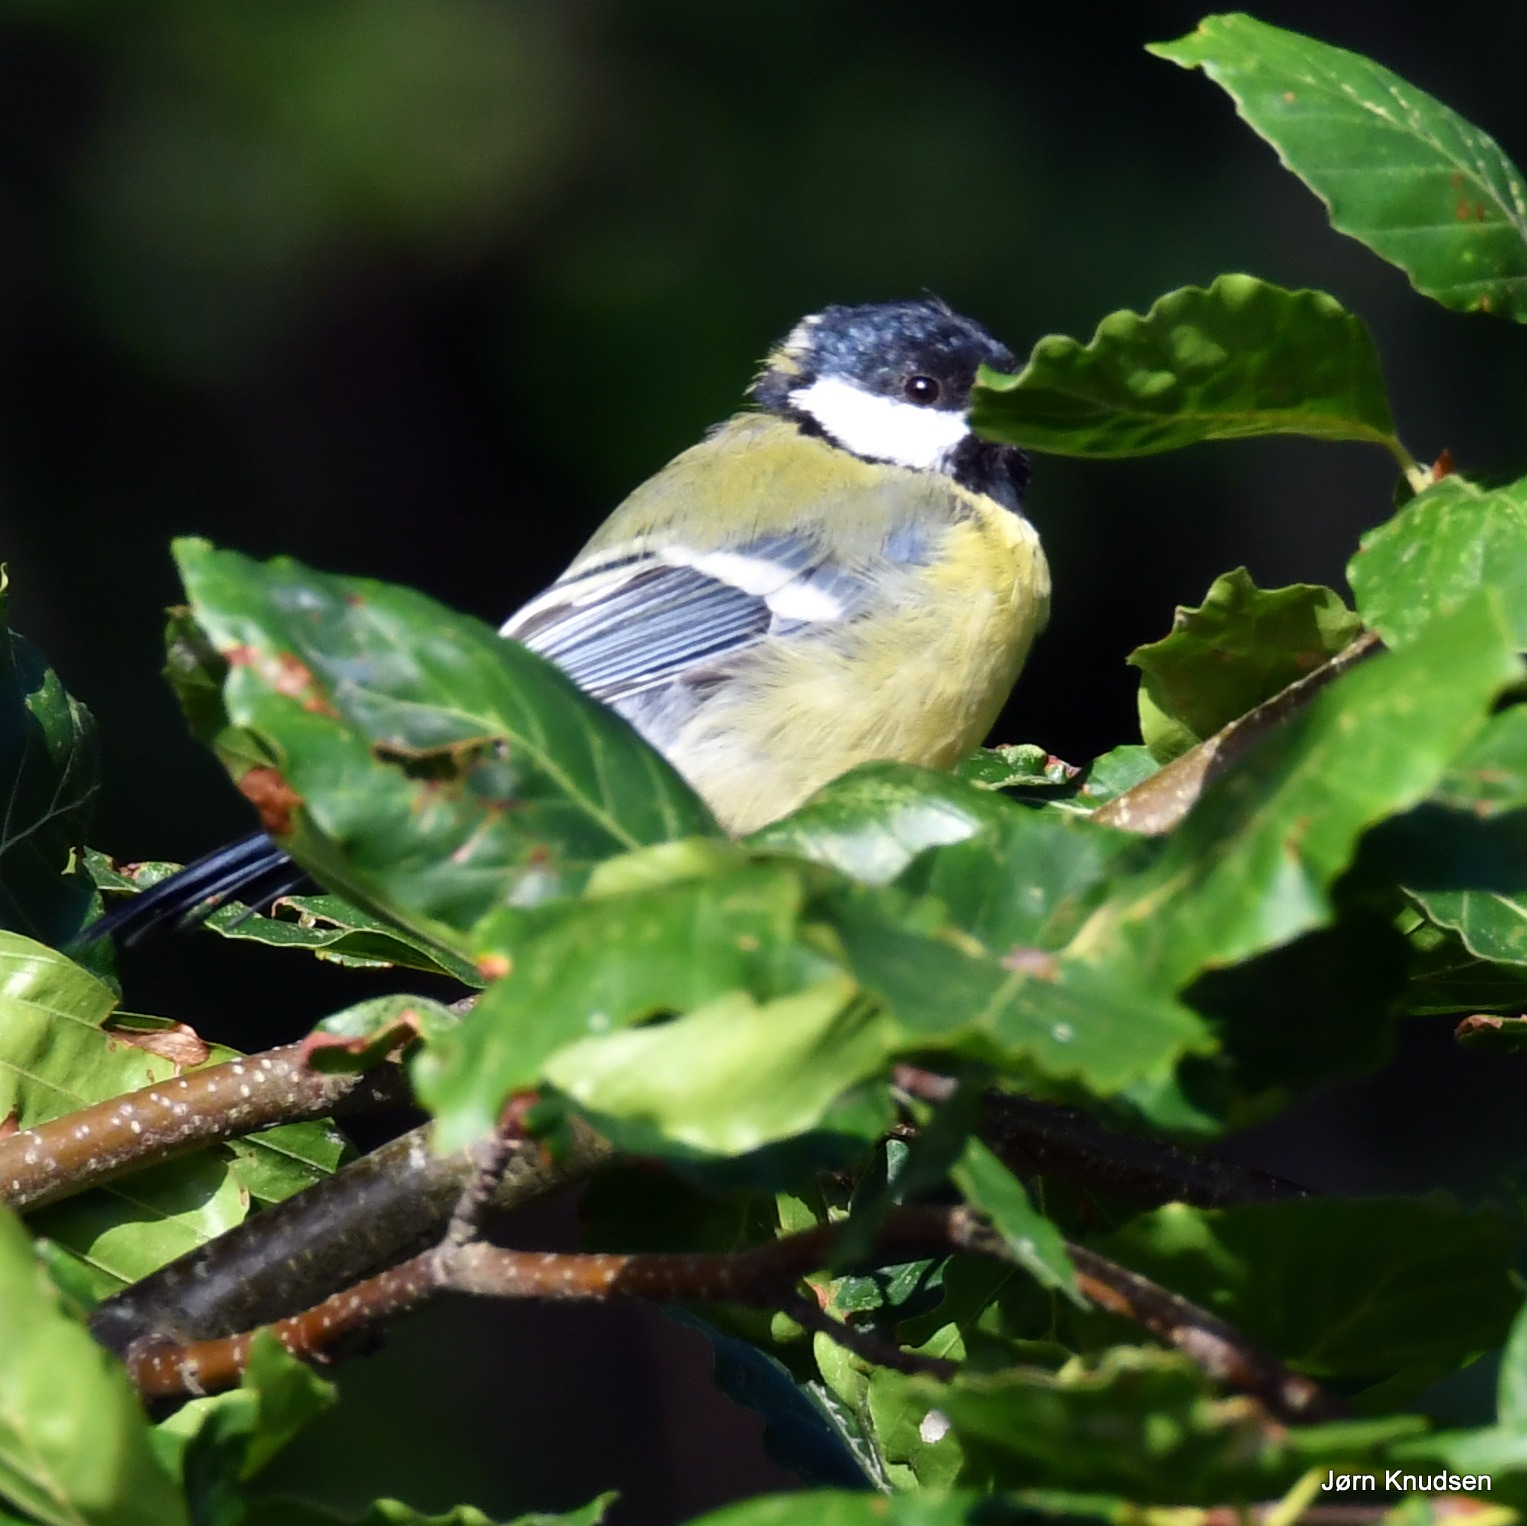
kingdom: Animalia
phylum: Chordata
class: Aves
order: Passeriformes
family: Paridae
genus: Parus
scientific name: Parus major
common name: Musvit
